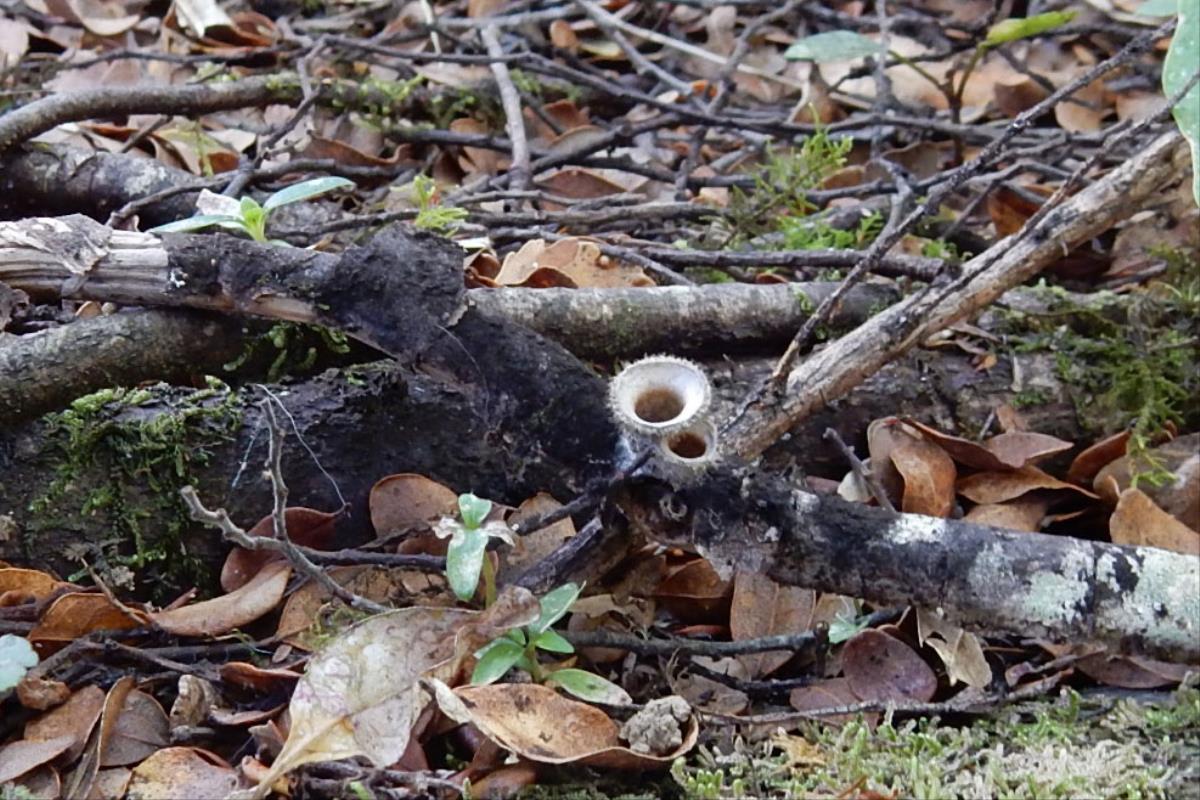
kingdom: Fungi
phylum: Basidiomycota
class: Agaricomycetes
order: Agaricales
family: Agaricaceae
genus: Nidula
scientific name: Nidula candida
